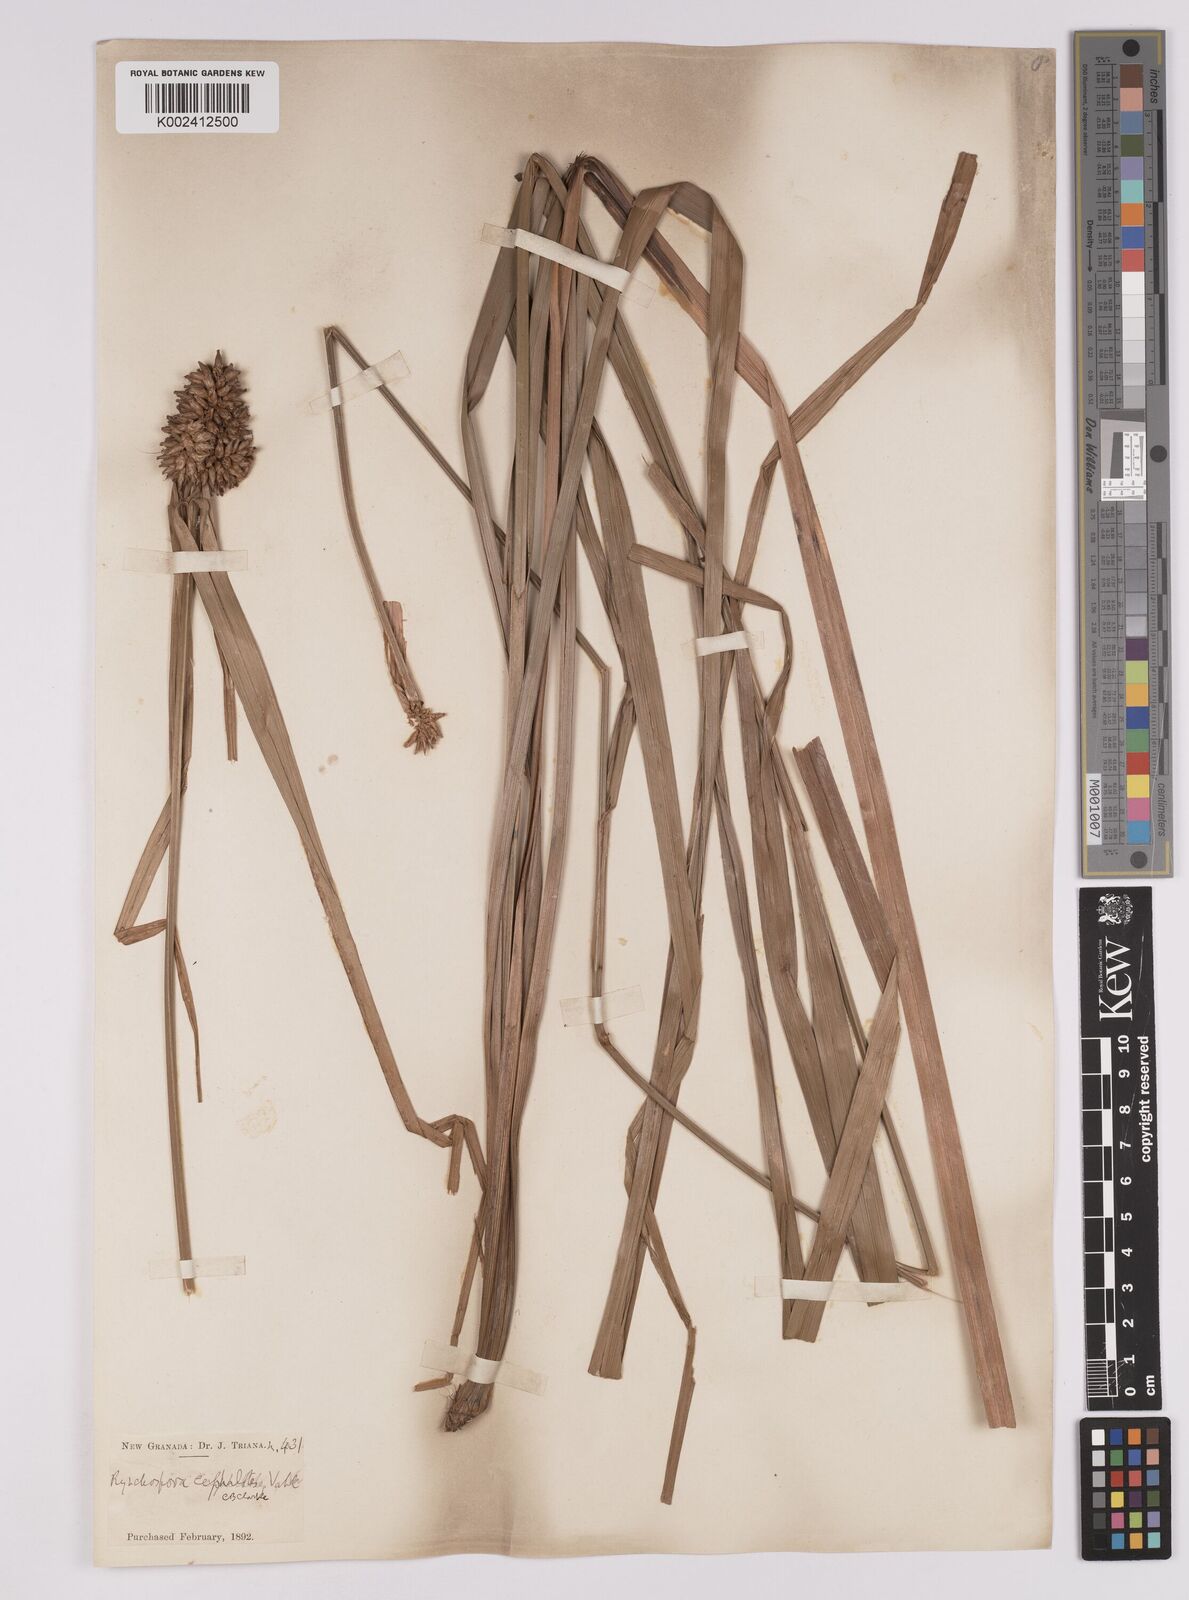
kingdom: Plantae
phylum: Tracheophyta
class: Liliopsida
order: Poales
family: Cyperaceae
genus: Rhynchospora
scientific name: Rhynchospora cephalotes
